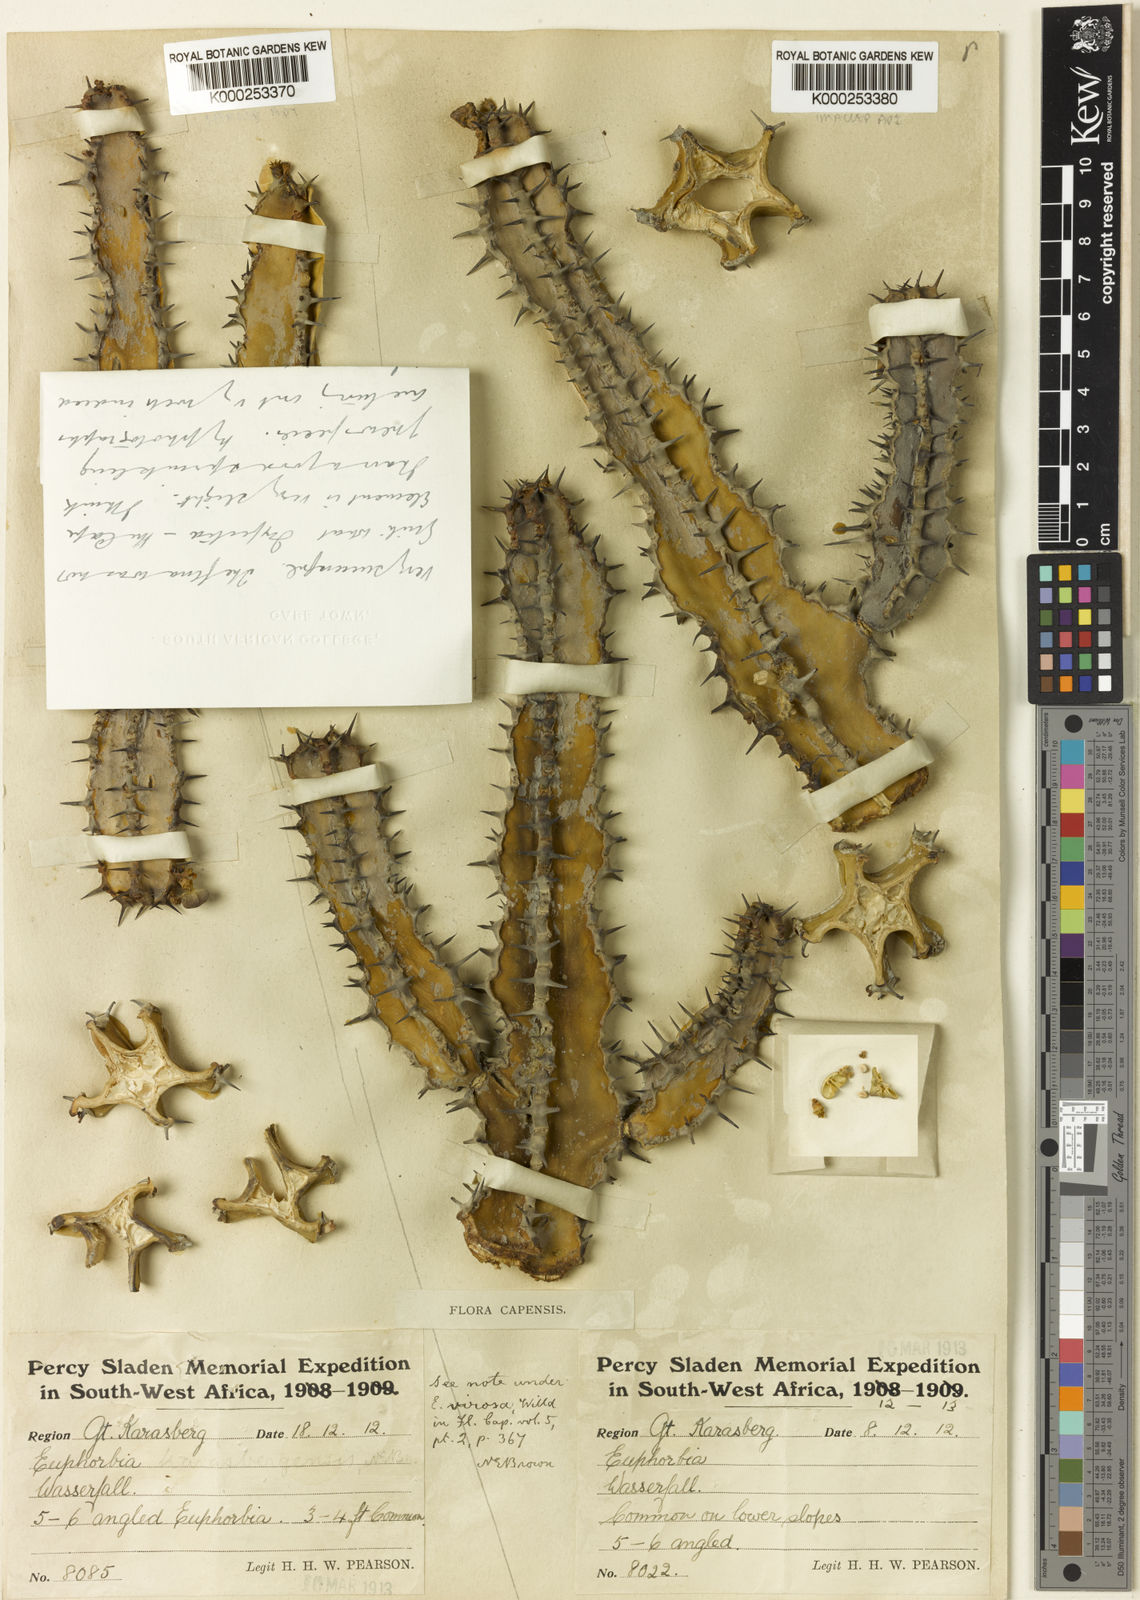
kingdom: Plantae
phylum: Tracheophyta
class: Magnoliopsida
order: Malpighiales
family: Euphorbiaceae
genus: Euphorbia
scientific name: Euphorbia avasmontana
